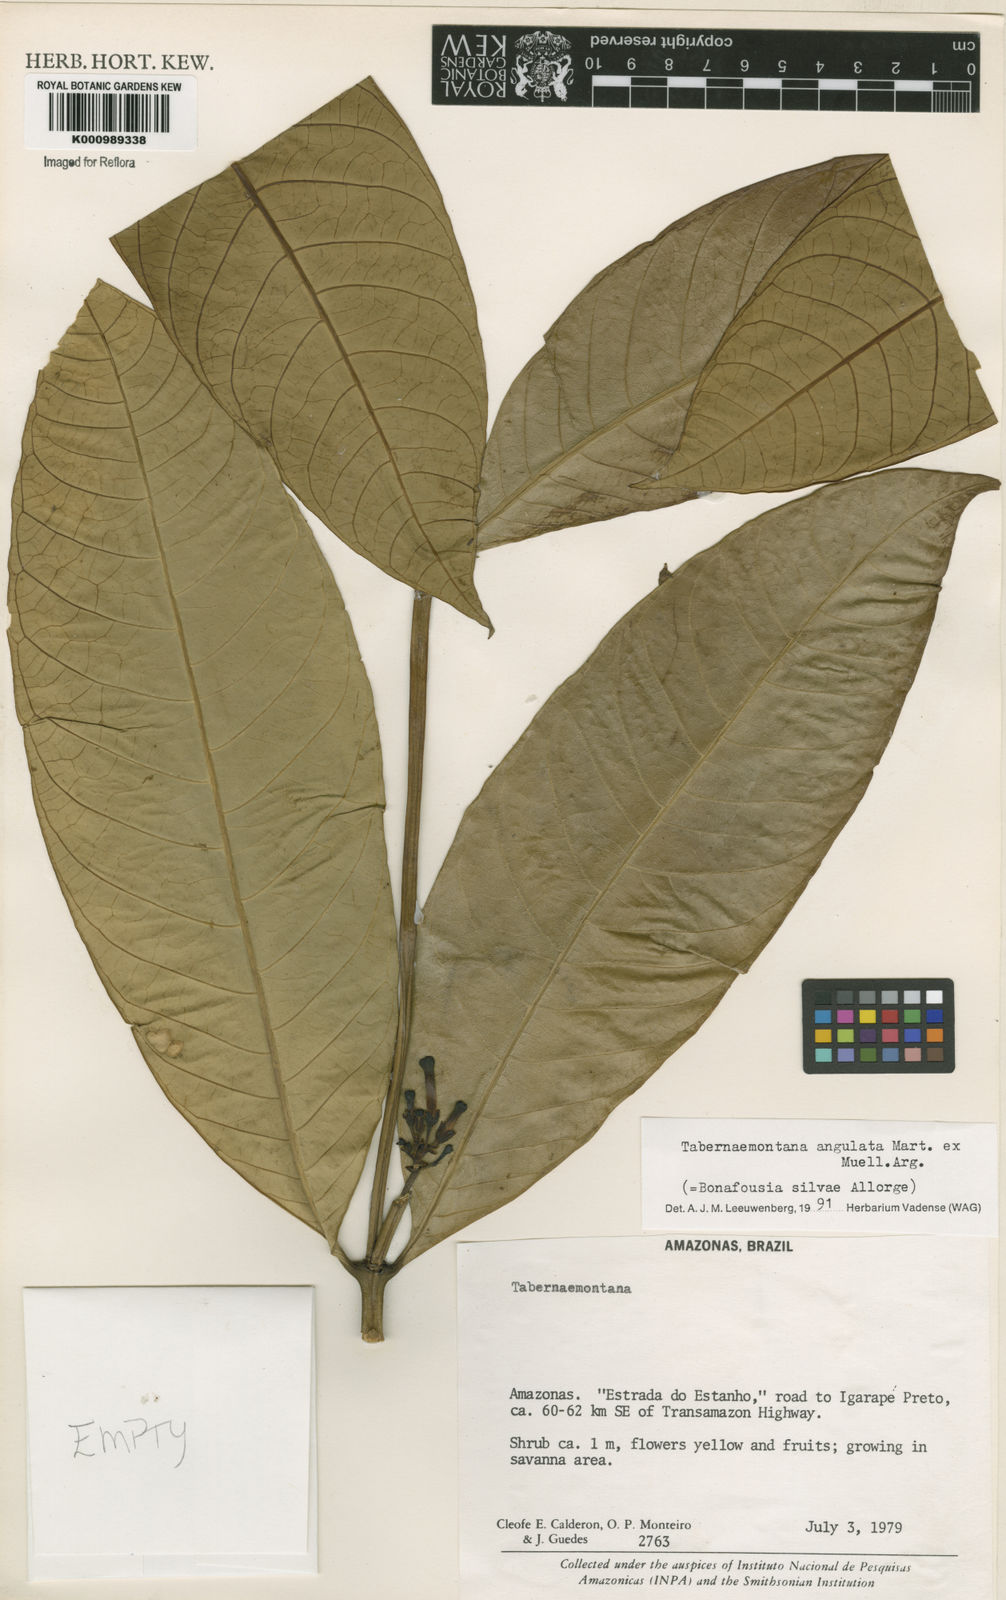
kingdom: Plantae
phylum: Tracheophyta
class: Magnoliopsida
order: Gentianales
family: Apocynaceae
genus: Tabernaemontana
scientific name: Tabernaemontana
